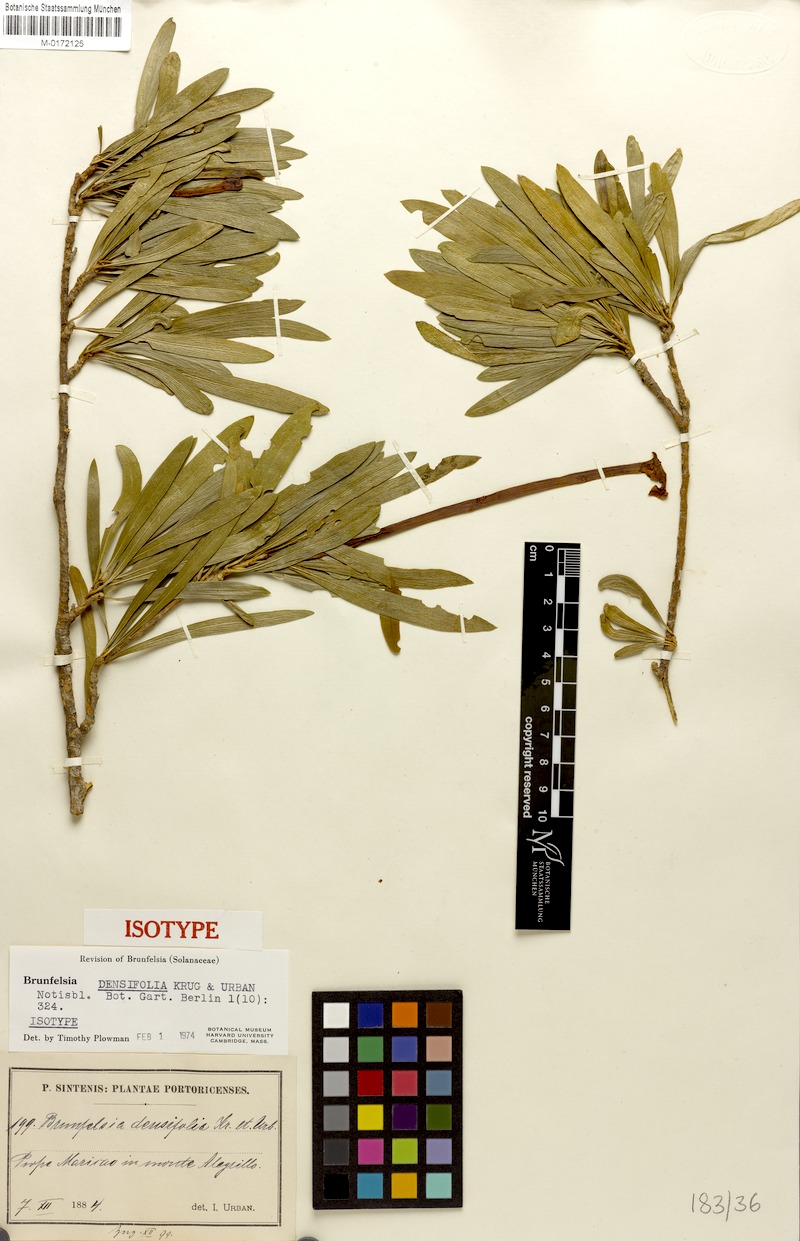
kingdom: Plantae
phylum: Tracheophyta
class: Magnoliopsida
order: Solanales
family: Solanaceae
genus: Brunfelsia
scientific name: Brunfelsia densifolia
